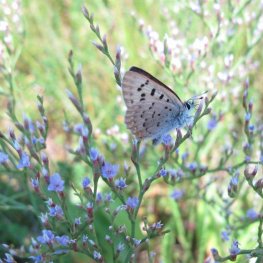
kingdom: Animalia
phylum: Arthropoda
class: Insecta
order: Lepidoptera
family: Lycaenidae
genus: Epidemia
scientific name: Epidemia dorcas
